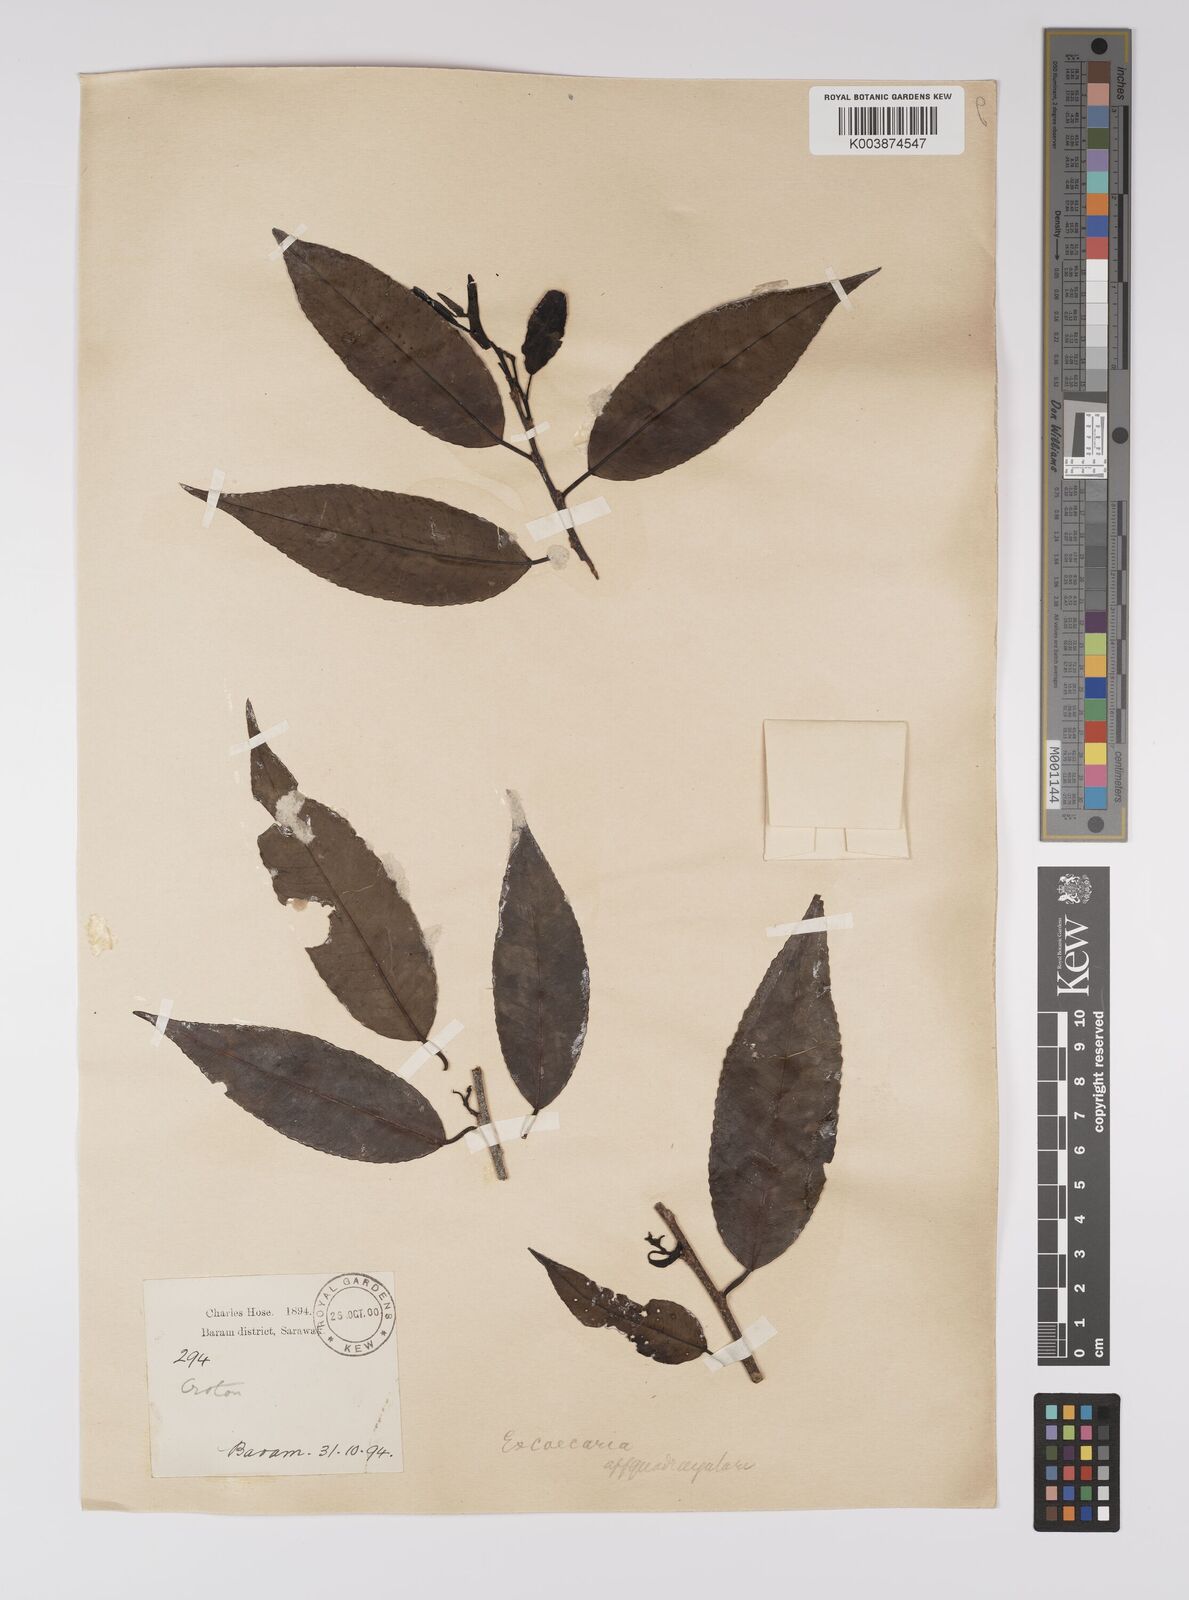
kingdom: Plantae
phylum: Tracheophyta
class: Magnoliopsida
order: Malpighiales
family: Euphorbiaceae
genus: Shirakiopsis
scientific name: Shirakiopsis indica
